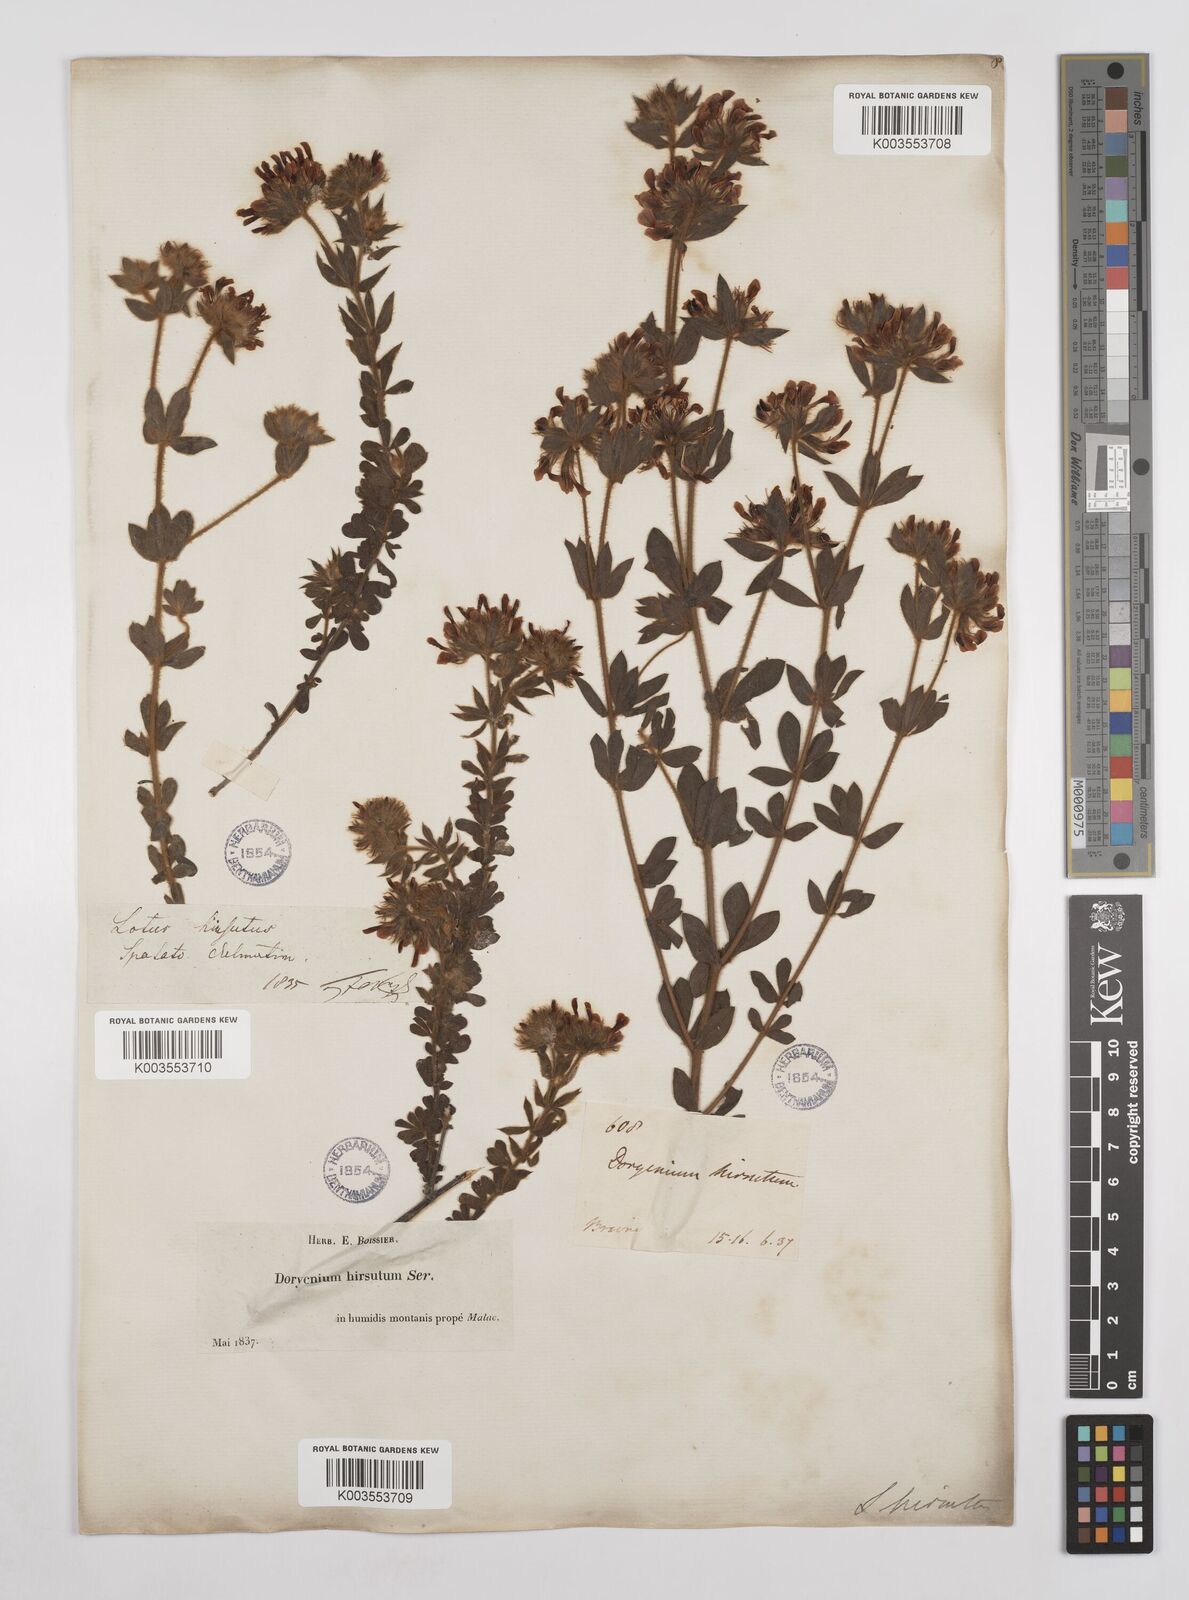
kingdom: Plantae
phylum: Tracheophyta
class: Magnoliopsida
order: Fabales
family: Fabaceae
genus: Lotus
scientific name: Lotus hirsutus
